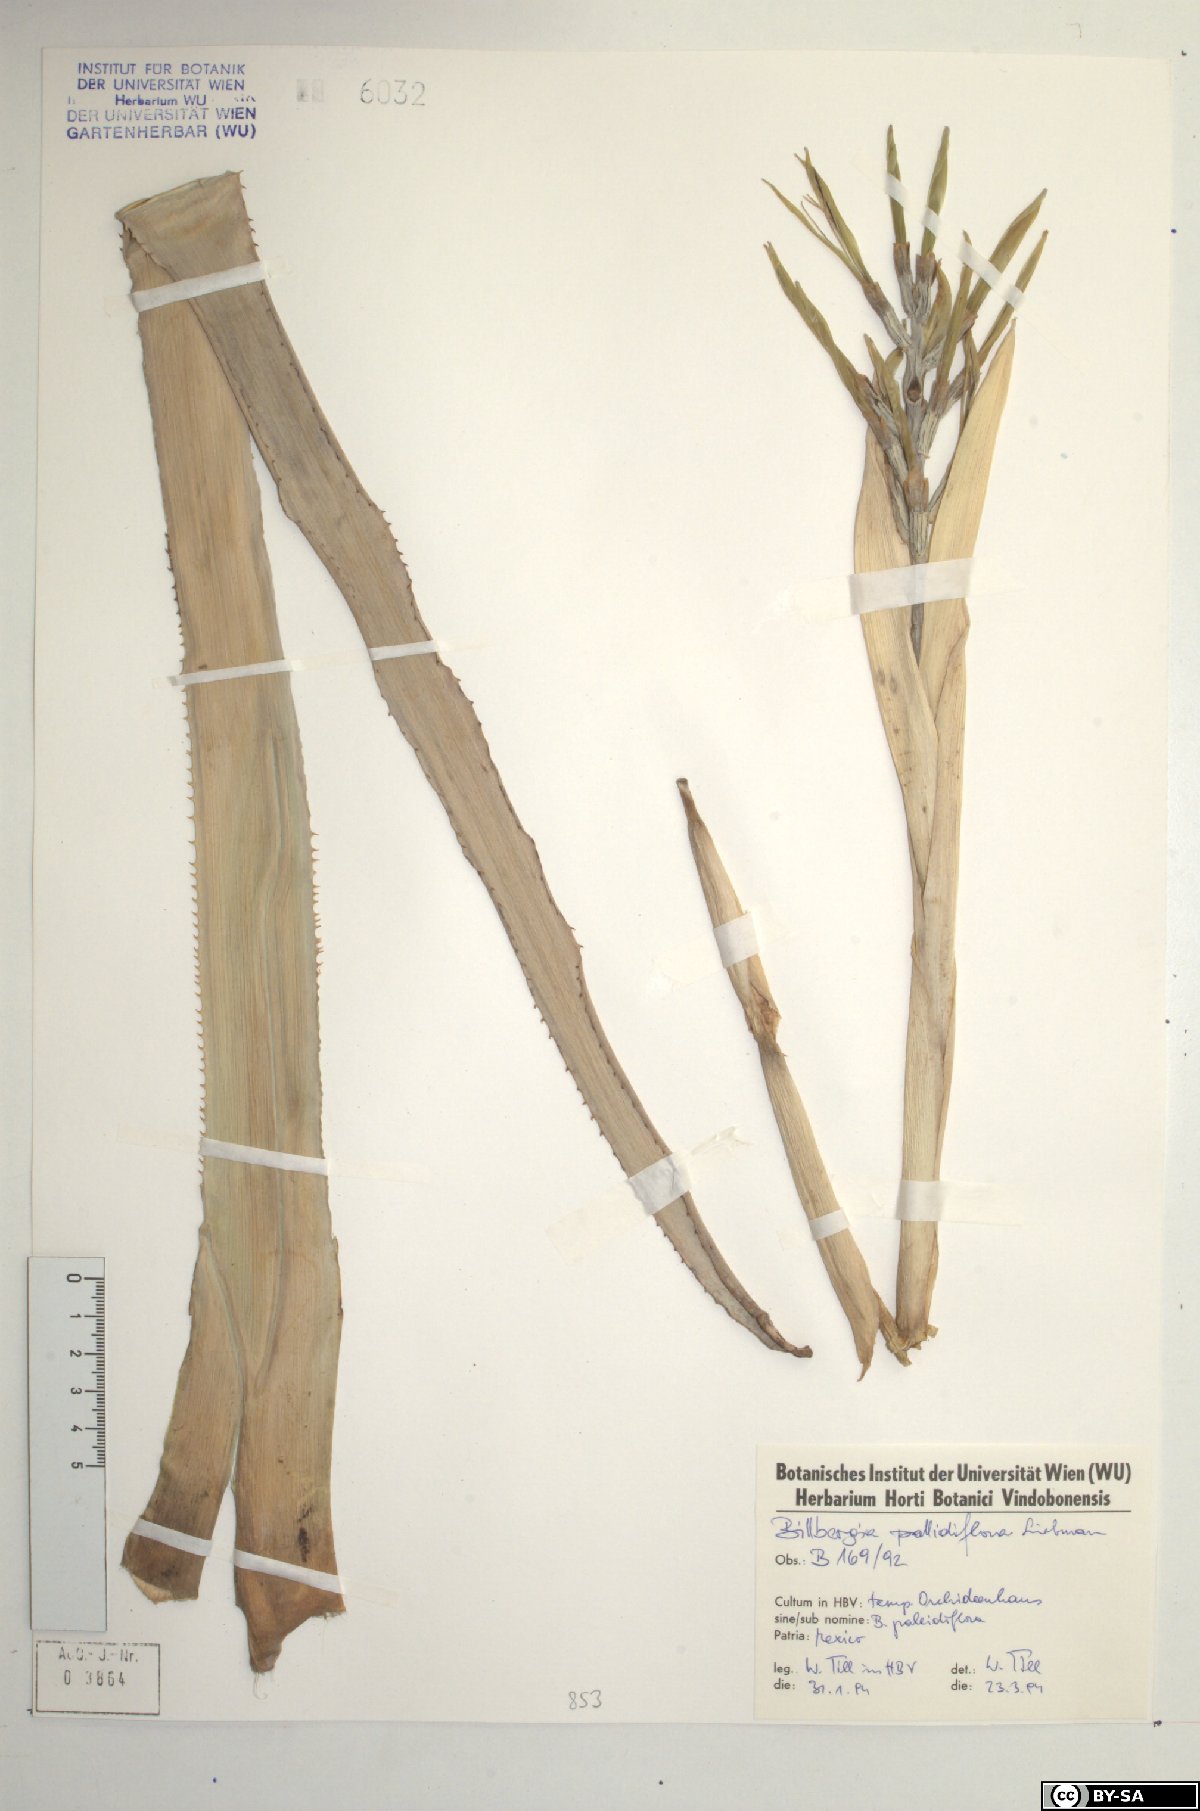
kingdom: Plantae
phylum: Tracheophyta
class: Liliopsida
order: Poales
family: Bromeliaceae
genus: Billbergia
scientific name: Billbergia pallidiflora
